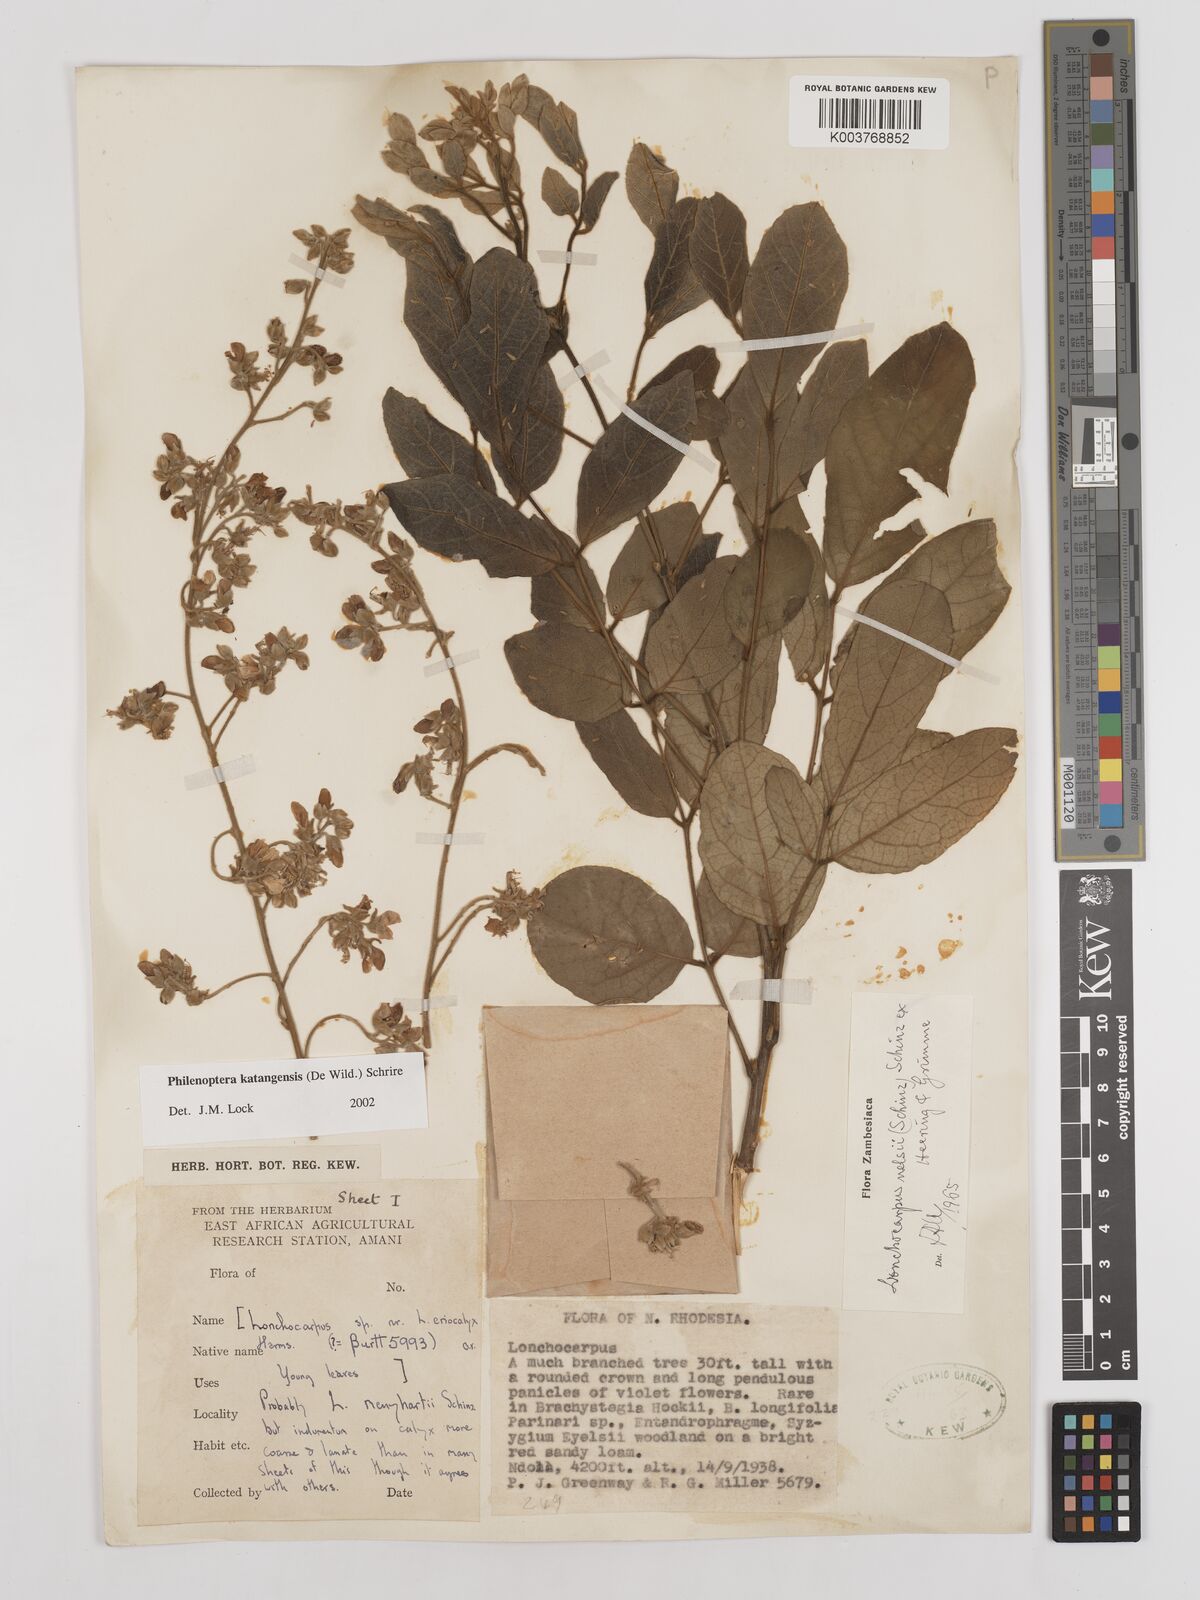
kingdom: Plantae
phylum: Tracheophyta
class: Magnoliopsida
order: Fabales
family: Fabaceae
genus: Philenoptera
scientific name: Philenoptera katangensis
